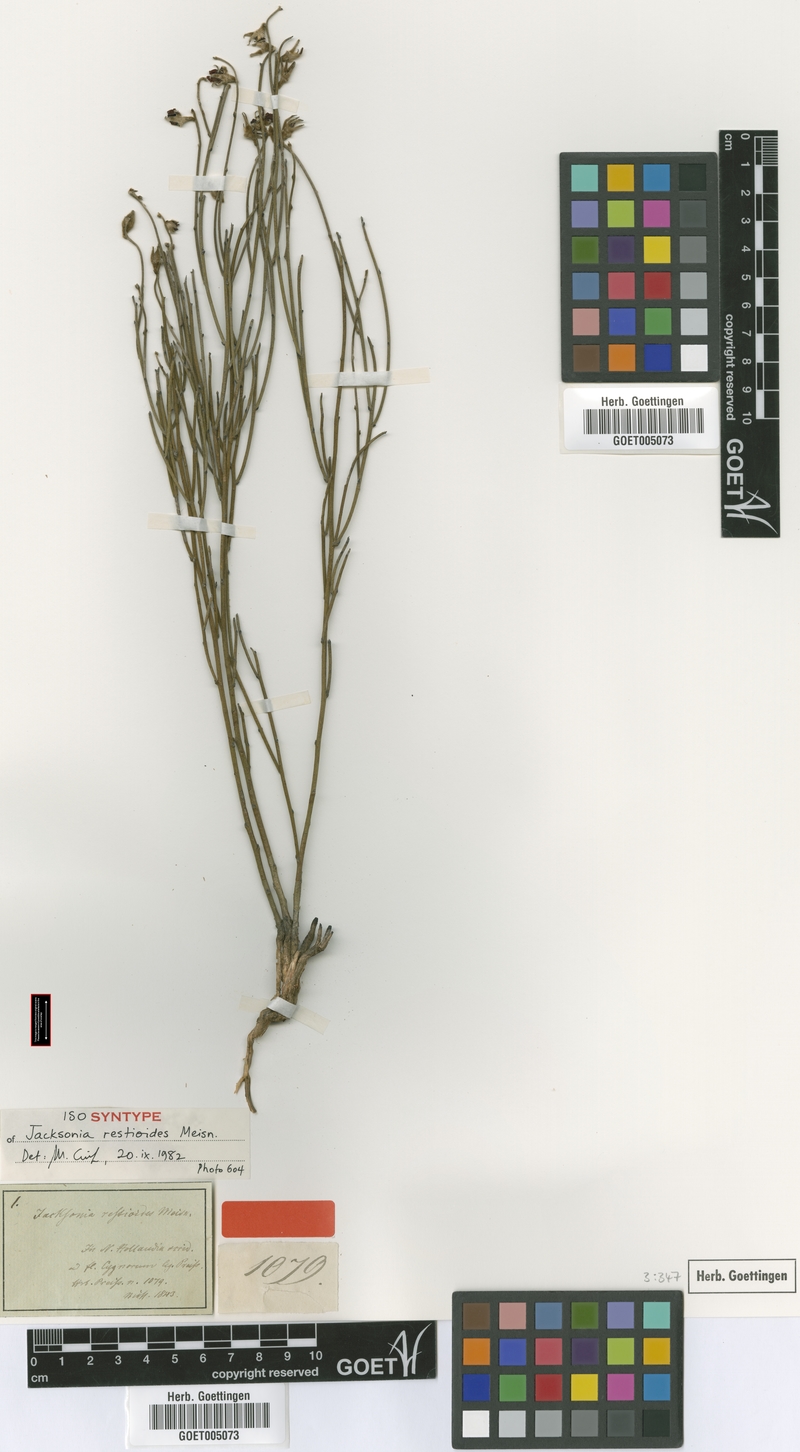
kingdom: Plantae
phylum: Tracheophyta
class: Magnoliopsida
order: Fabales
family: Fabaceae
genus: Jacksonia
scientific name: Jacksonia restioides
